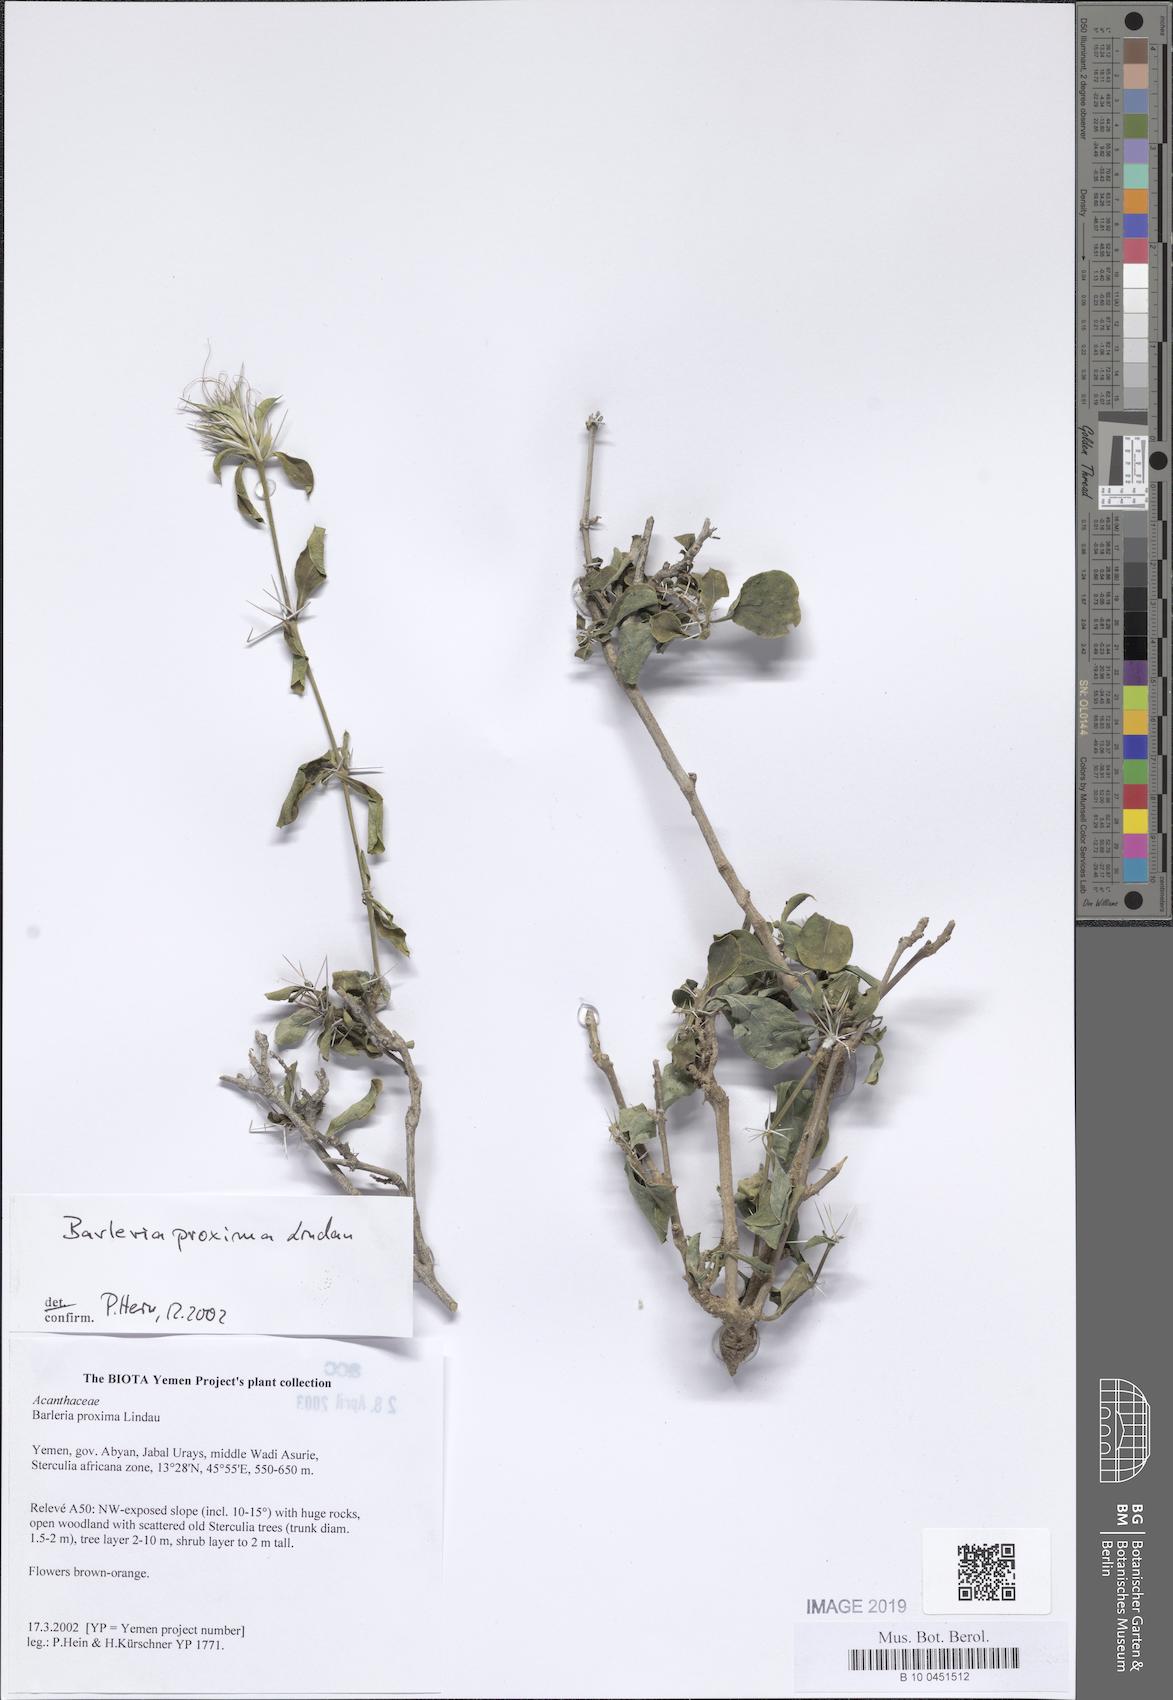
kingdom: Plantae
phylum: Tracheophyta
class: Magnoliopsida
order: Lamiales
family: Acanthaceae
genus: Barleria
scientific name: Barleria proxima
